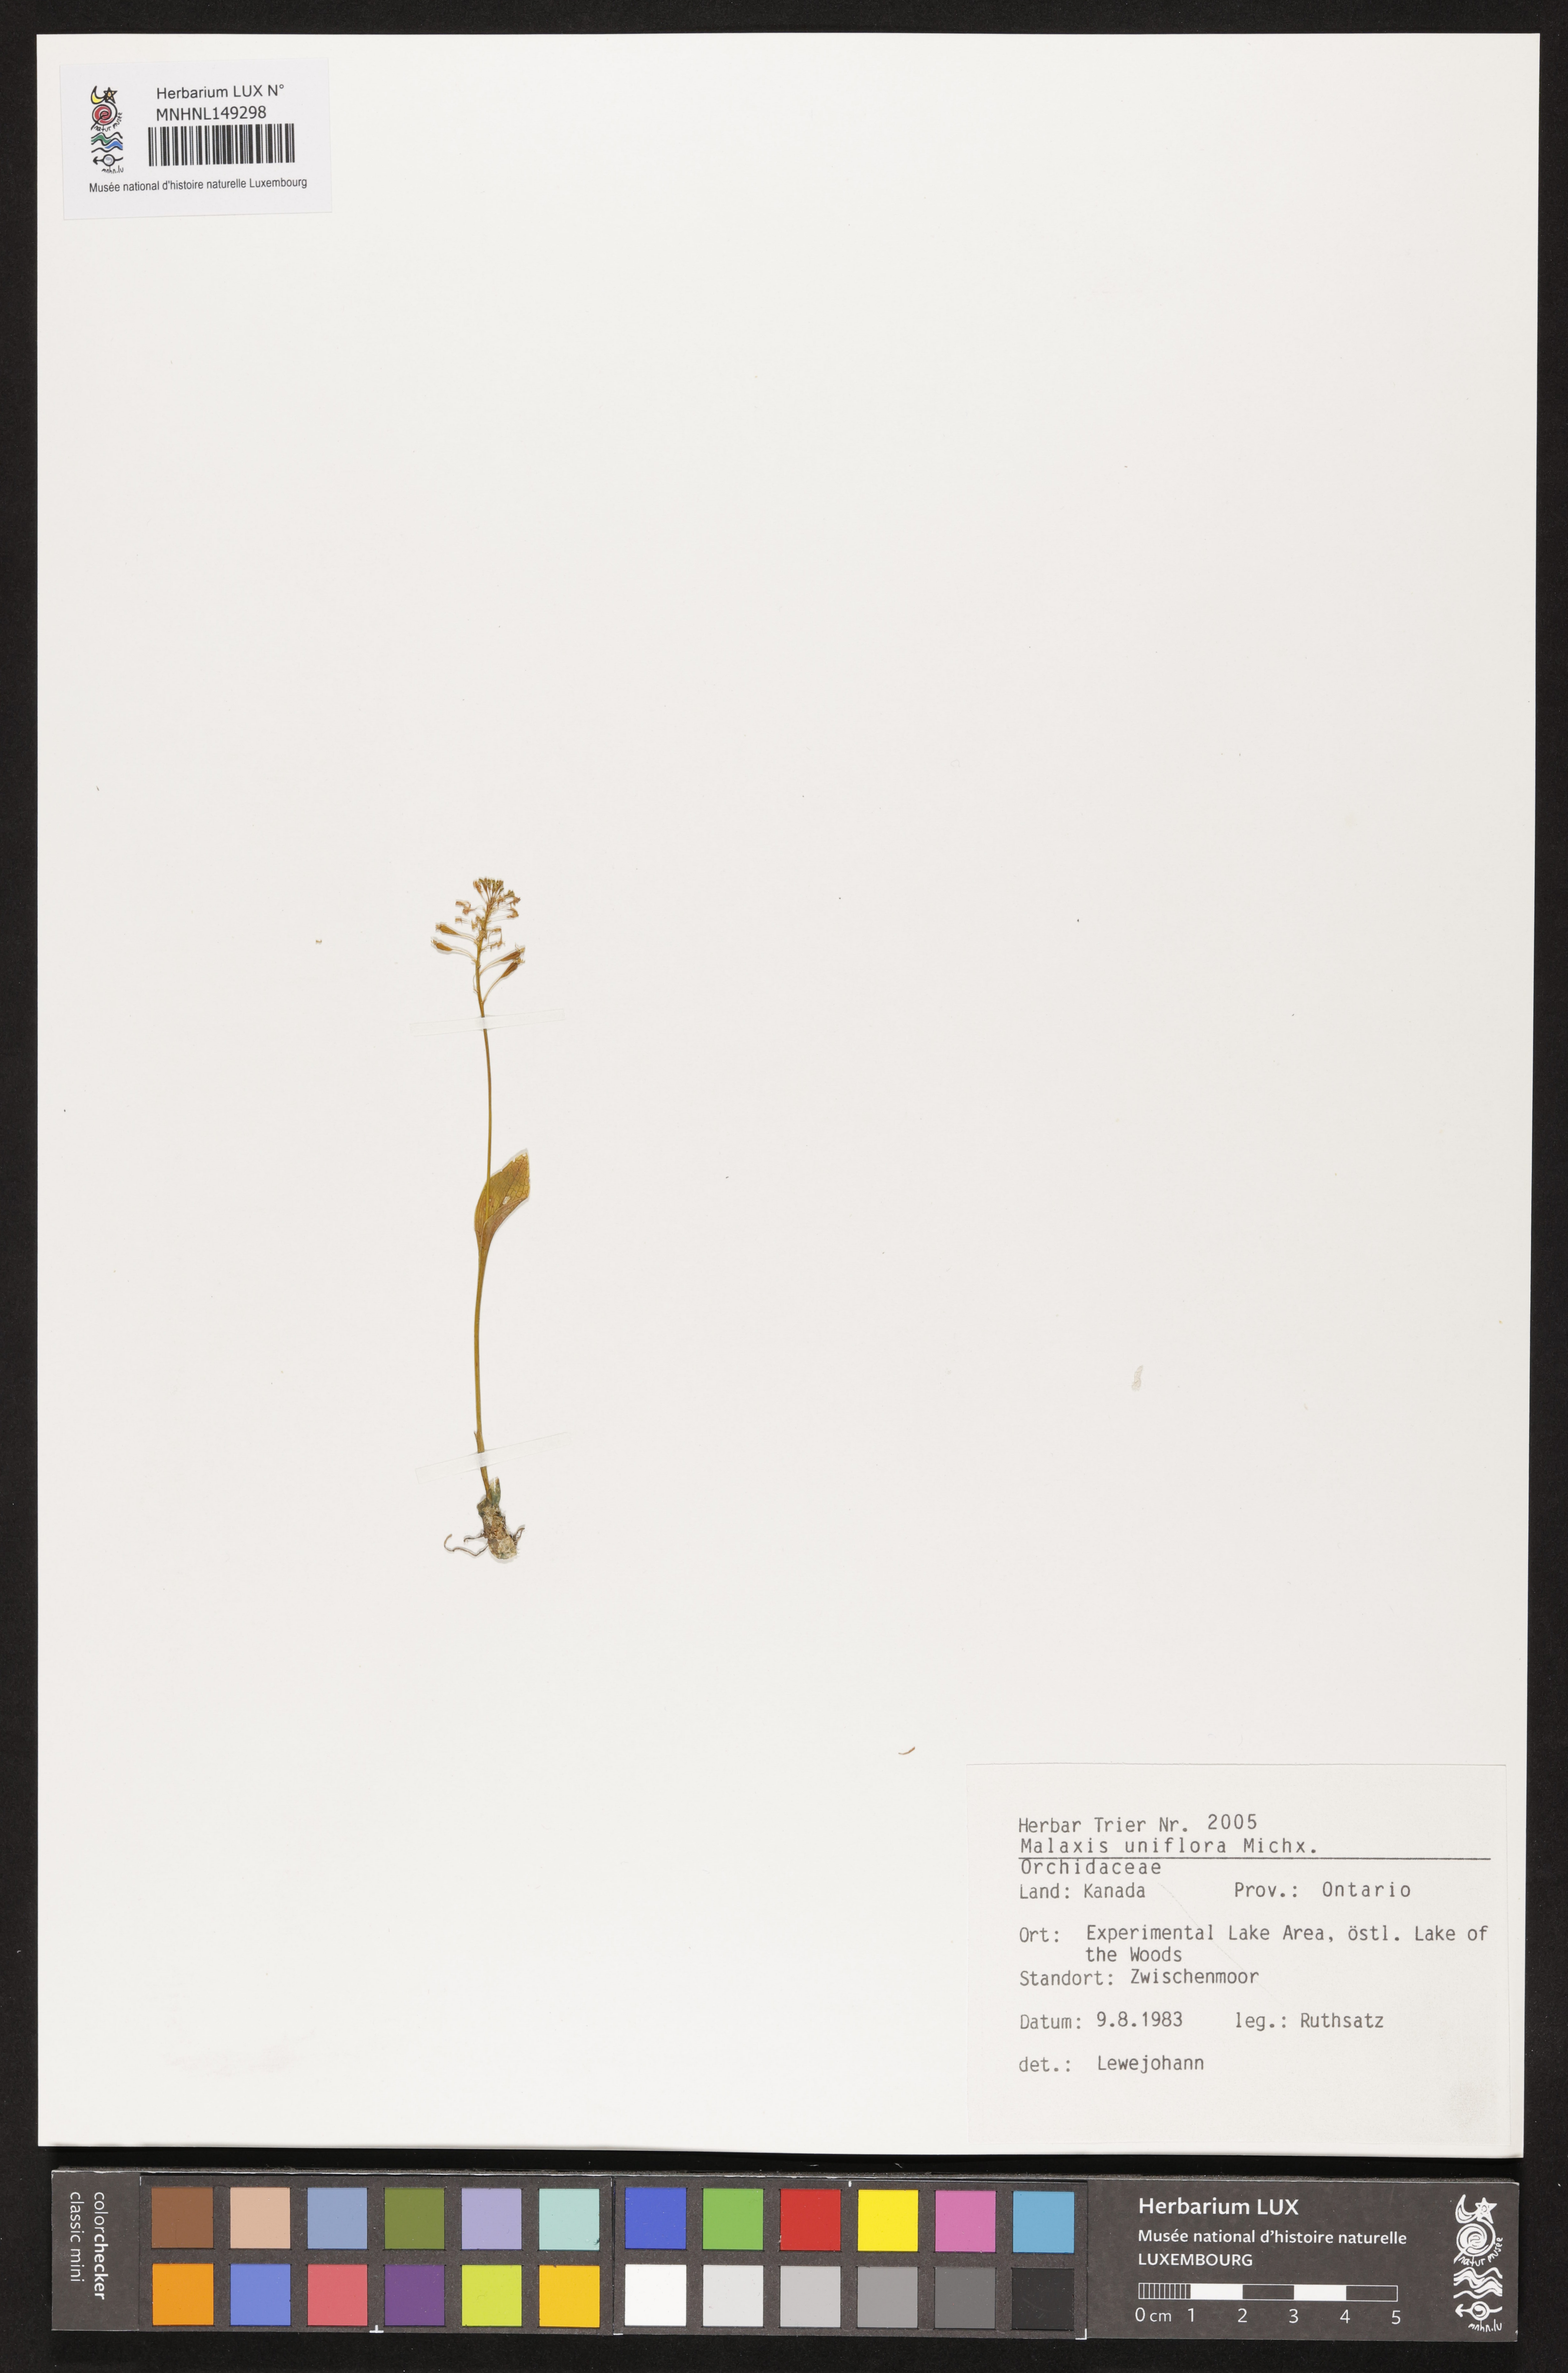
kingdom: Plantae
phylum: Tracheophyta
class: Liliopsida
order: Asparagales
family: Orchidaceae
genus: Malaxis
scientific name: Malaxis unifolia
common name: Green adder's-mouth
